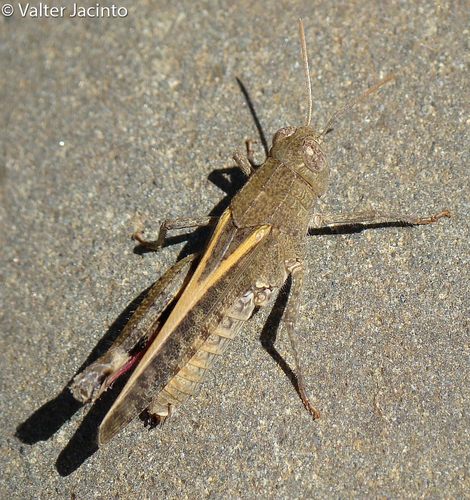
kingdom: Animalia
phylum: Arthropoda
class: Insecta
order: Orthoptera
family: Acrididae
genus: Calliptamus
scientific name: Calliptamus barbarus
